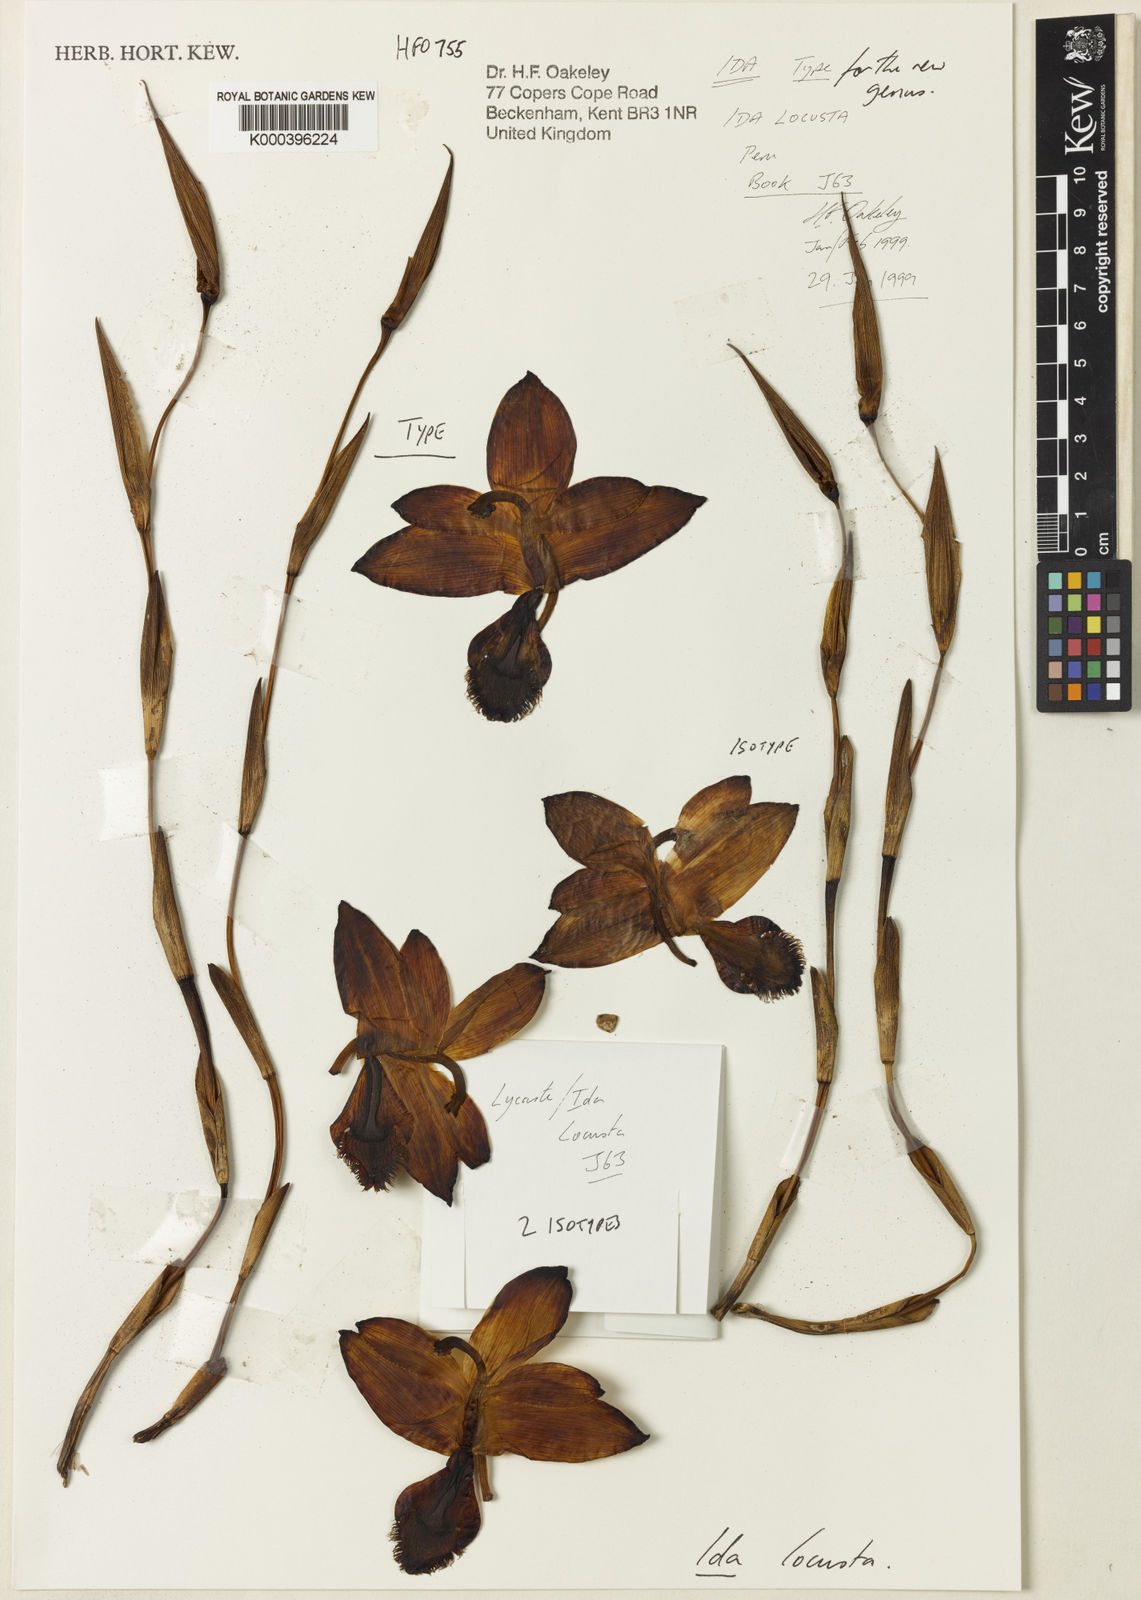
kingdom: Plantae
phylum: Tracheophyta
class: Liliopsida
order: Asparagales
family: Orchidaceae
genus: Ida
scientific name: Ida locusta
